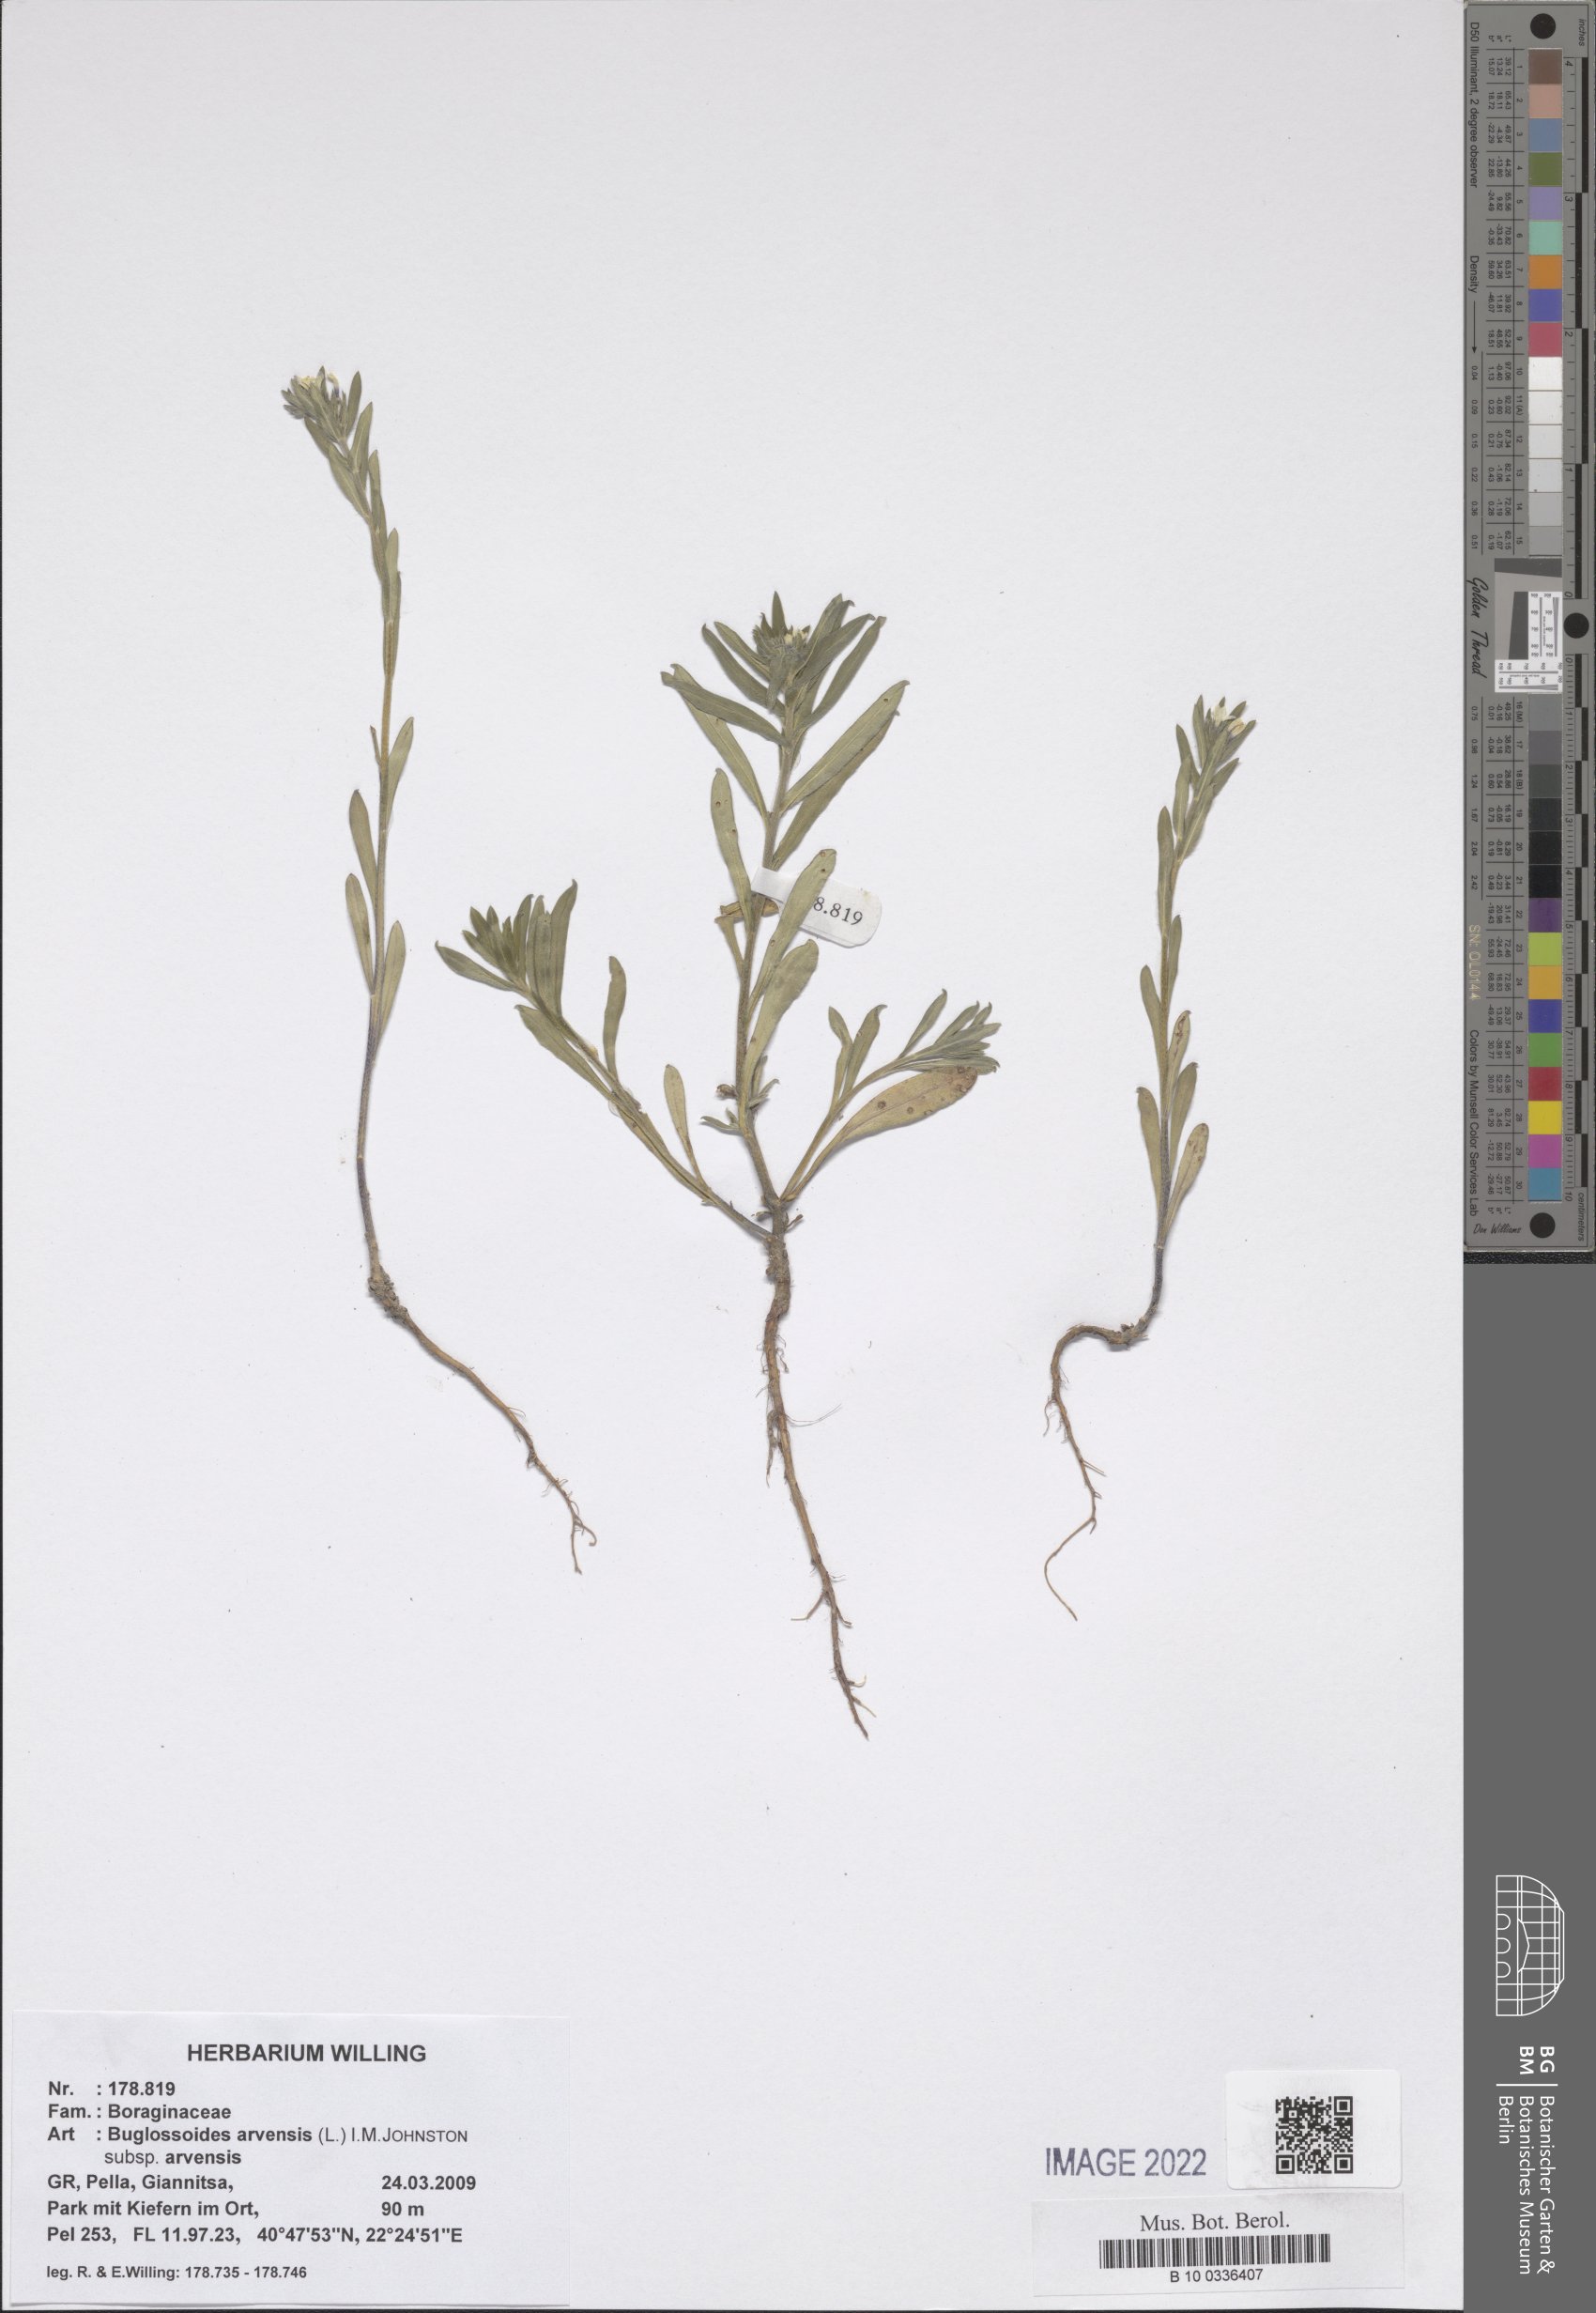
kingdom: Plantae
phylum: Tracheophyta
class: Magnoliopsida
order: Boraginales
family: Boraginaceae
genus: Buglossoides
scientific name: Buglossoides arvensis
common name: Corn gromwell
